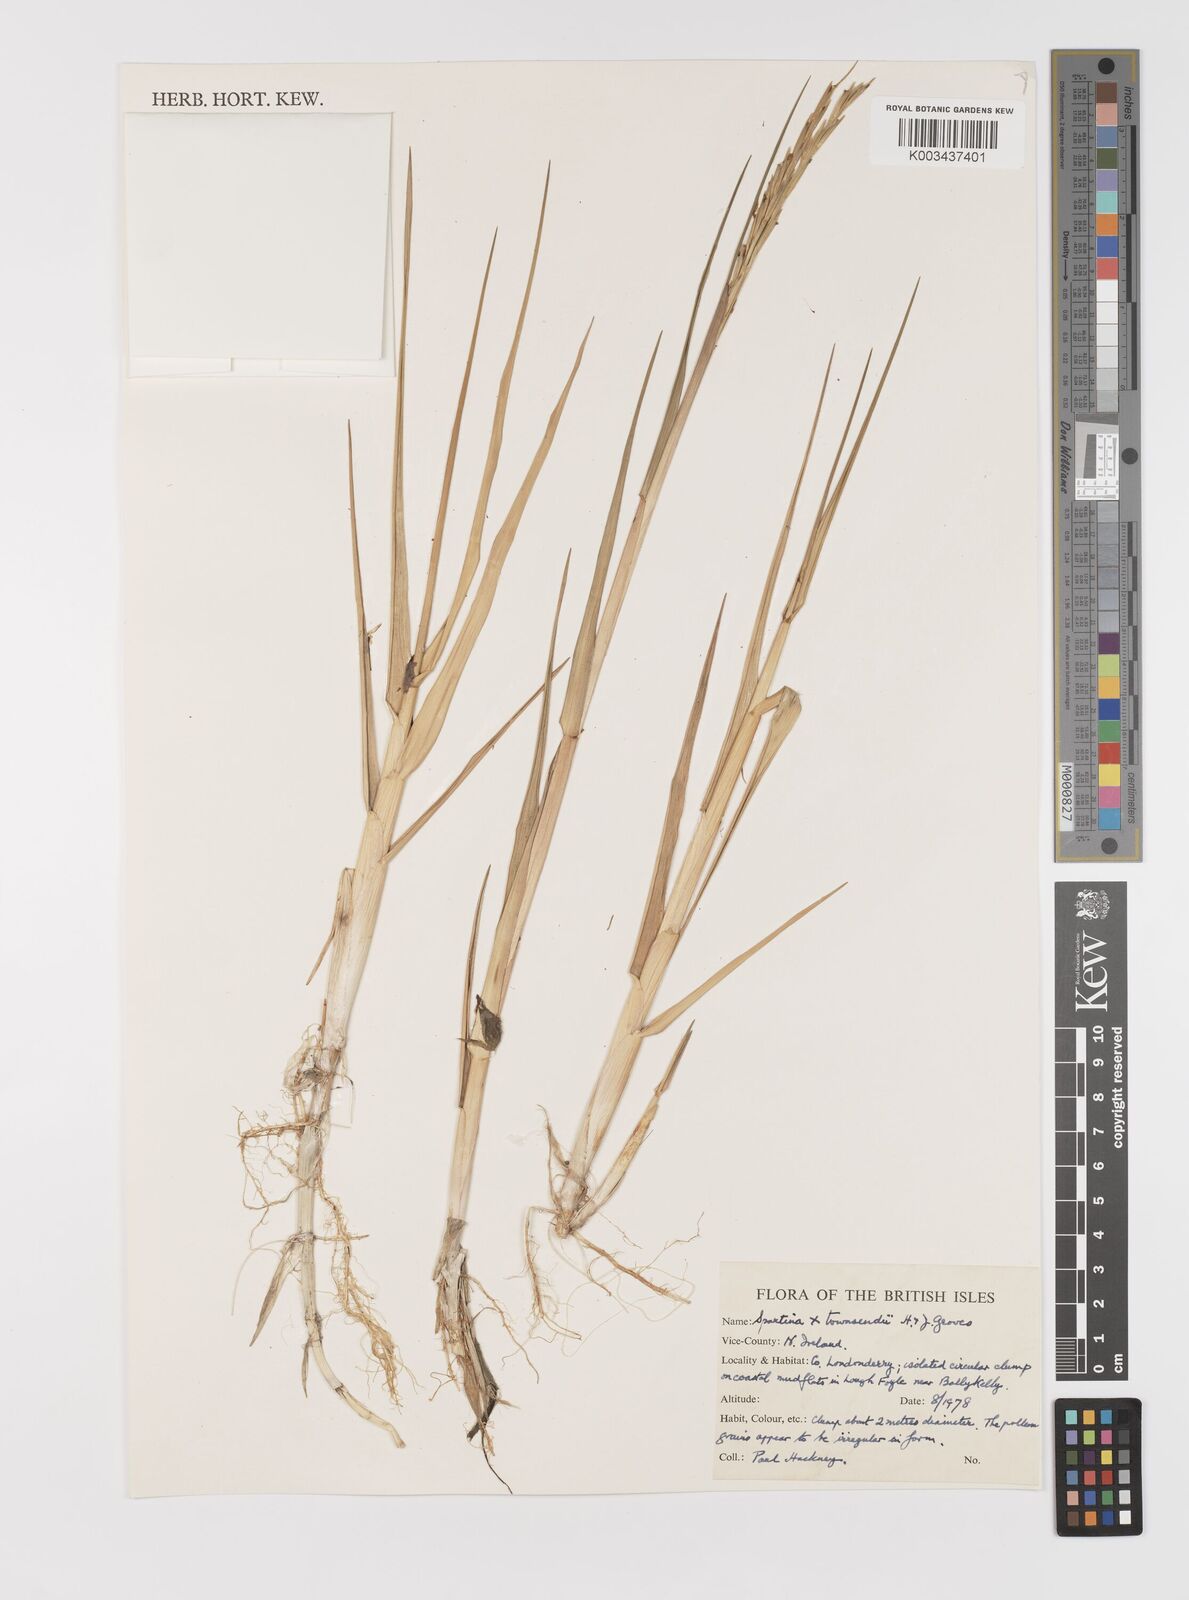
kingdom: Plantae
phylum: Tracheophyta
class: Liliopsida
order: Poales
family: Poaceae
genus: Sporobolus
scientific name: Sporobolus townsendii
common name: Townsend's cordgrass
